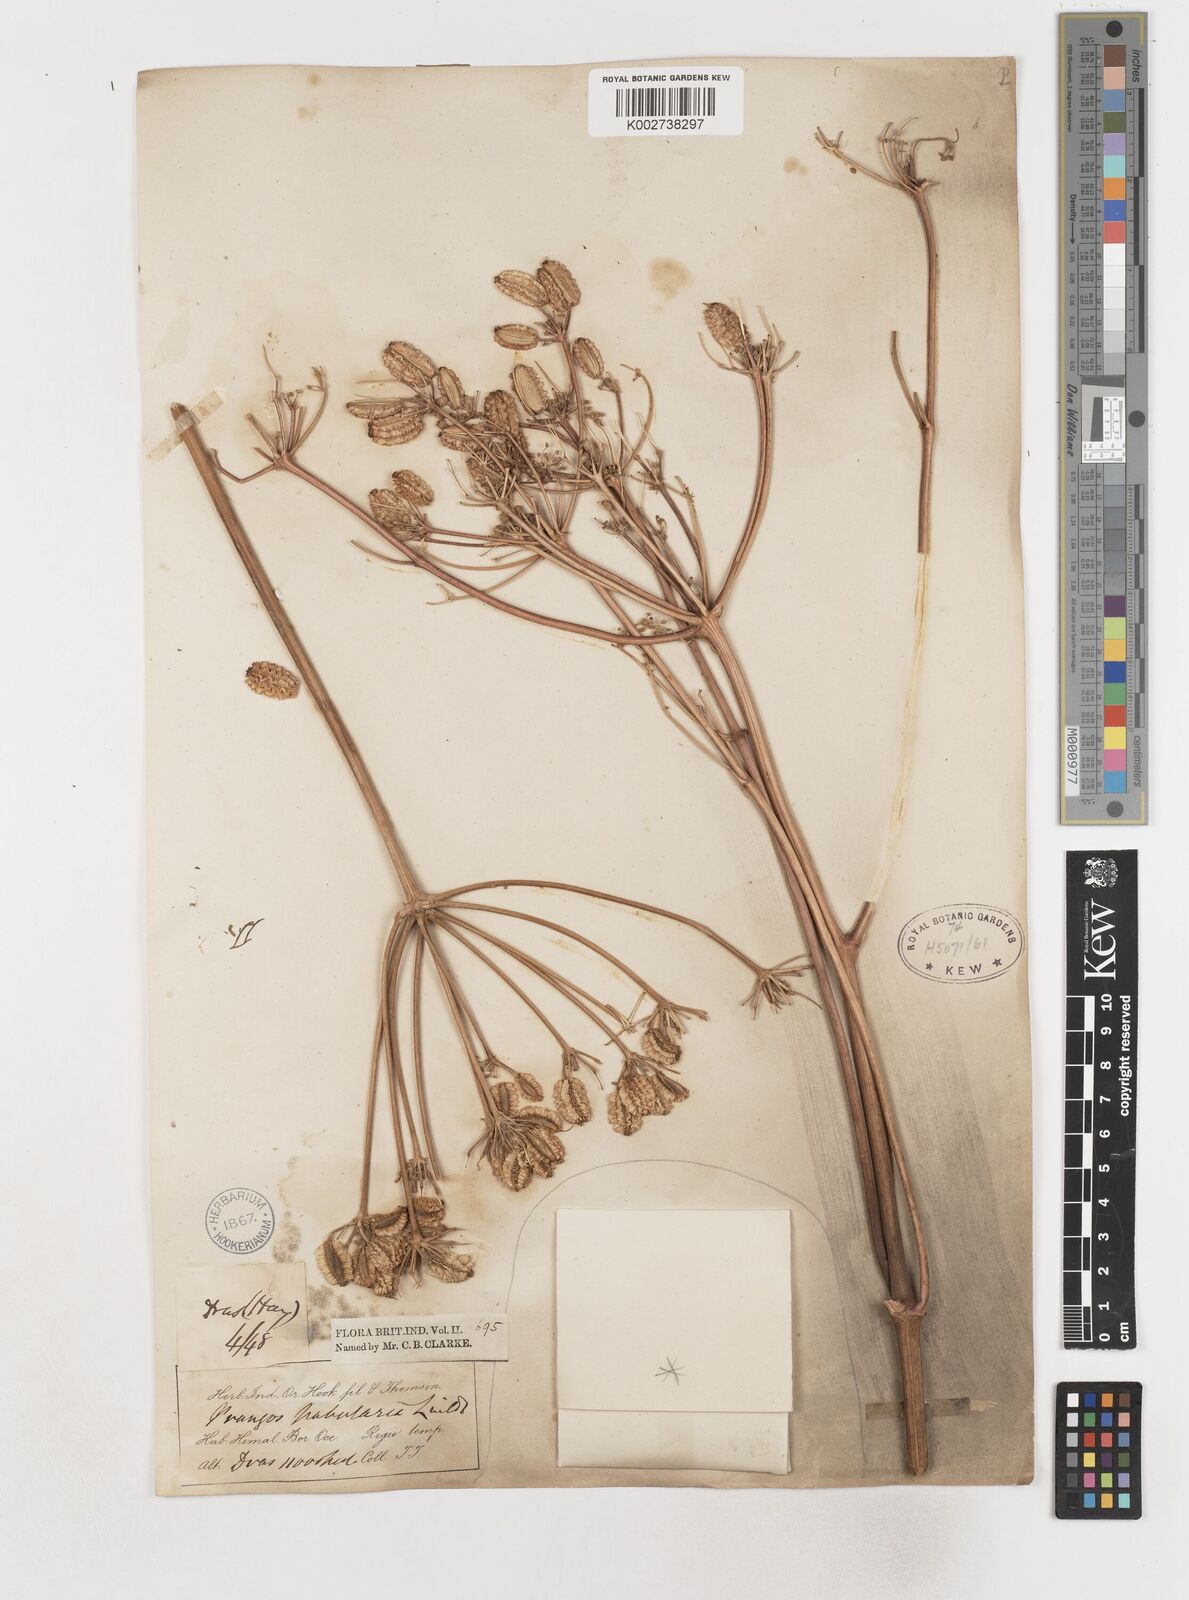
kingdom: Plantae
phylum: Tracheophyta
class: Magnoliopsida
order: Apiales
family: Apiaceae
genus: Prangos
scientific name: Prangos
